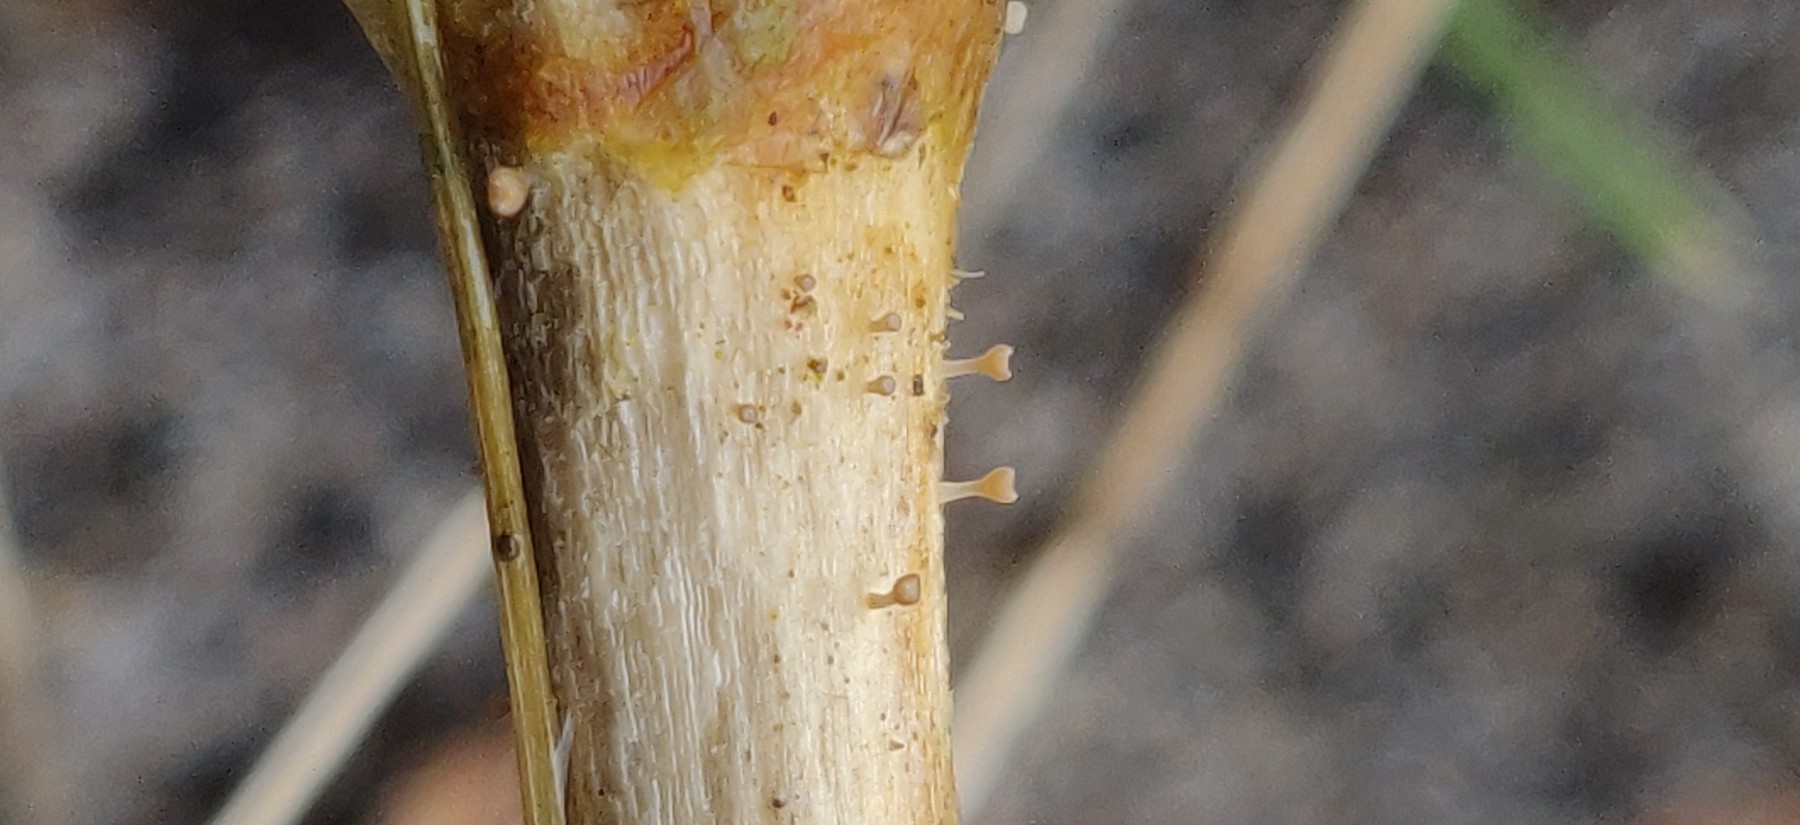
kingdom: Fungi
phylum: Ascomycota
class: Leotiomycetes
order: Helotiales
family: Helotiaceae
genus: Cyathicula
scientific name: Cyathicula cyathoidea
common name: pokal-stilkskive
